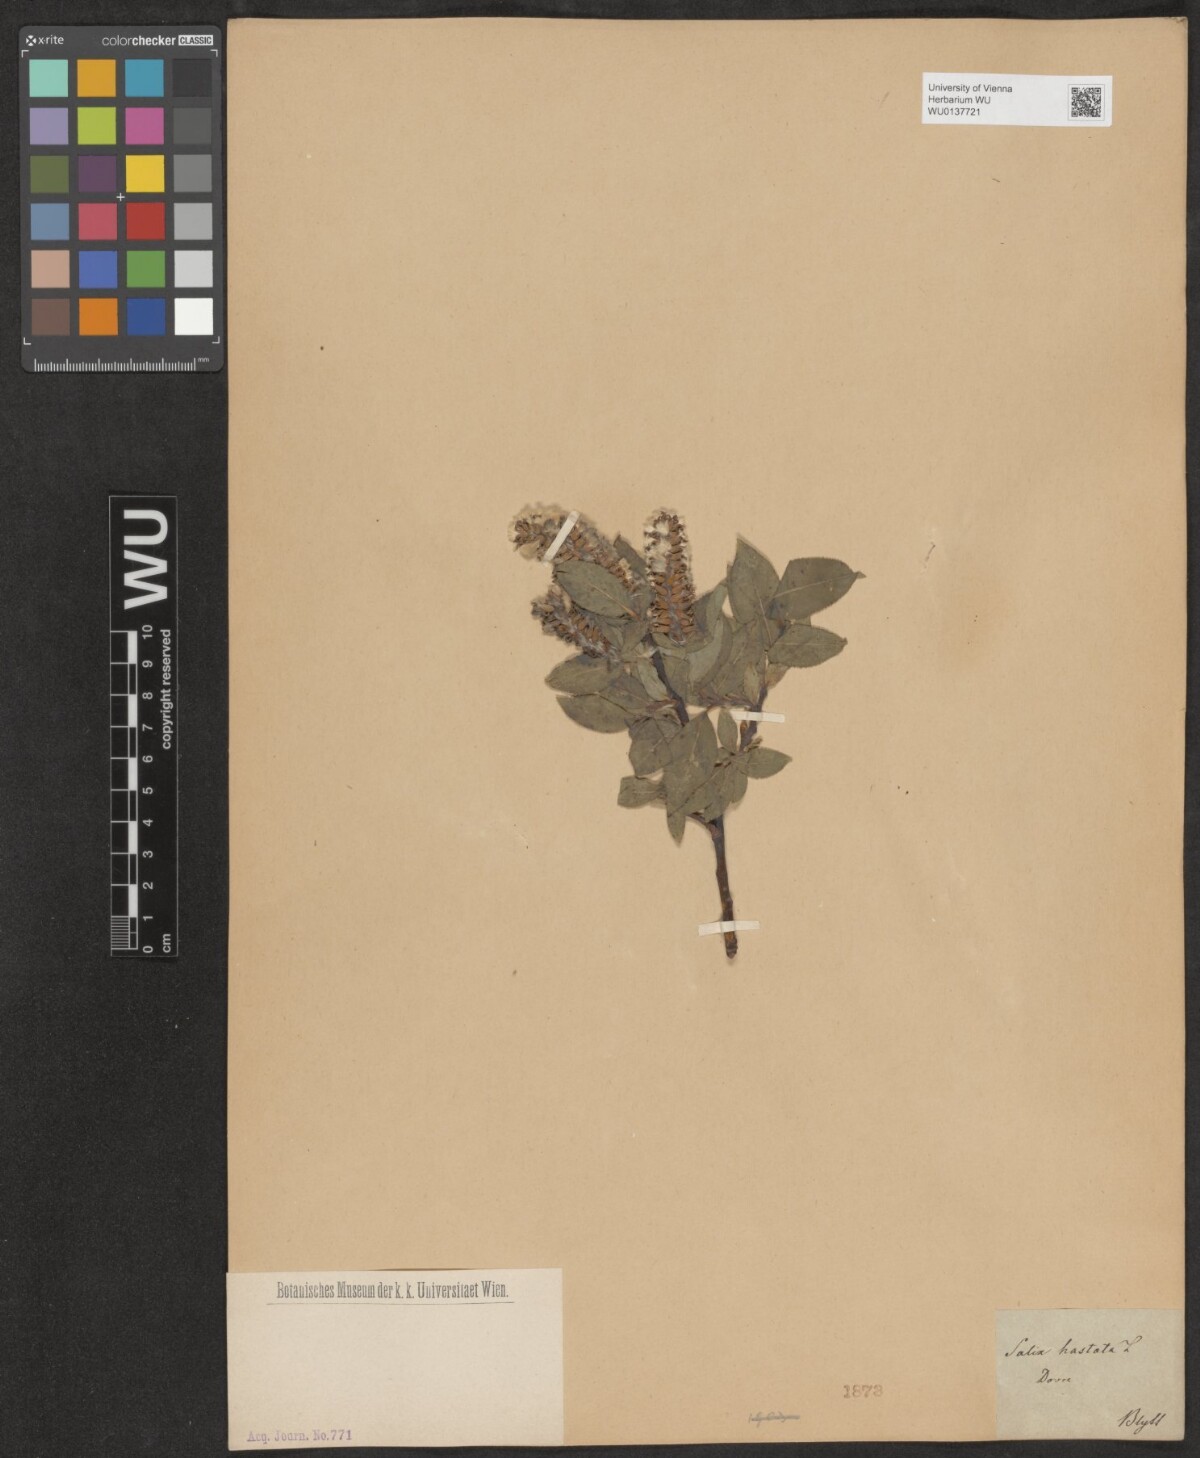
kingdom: Plantae
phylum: Tracheophyta
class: Magnoliopsida
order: Malpighiales
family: Salicaceae
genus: Salix
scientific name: Salix hastata
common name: Halberd willow
